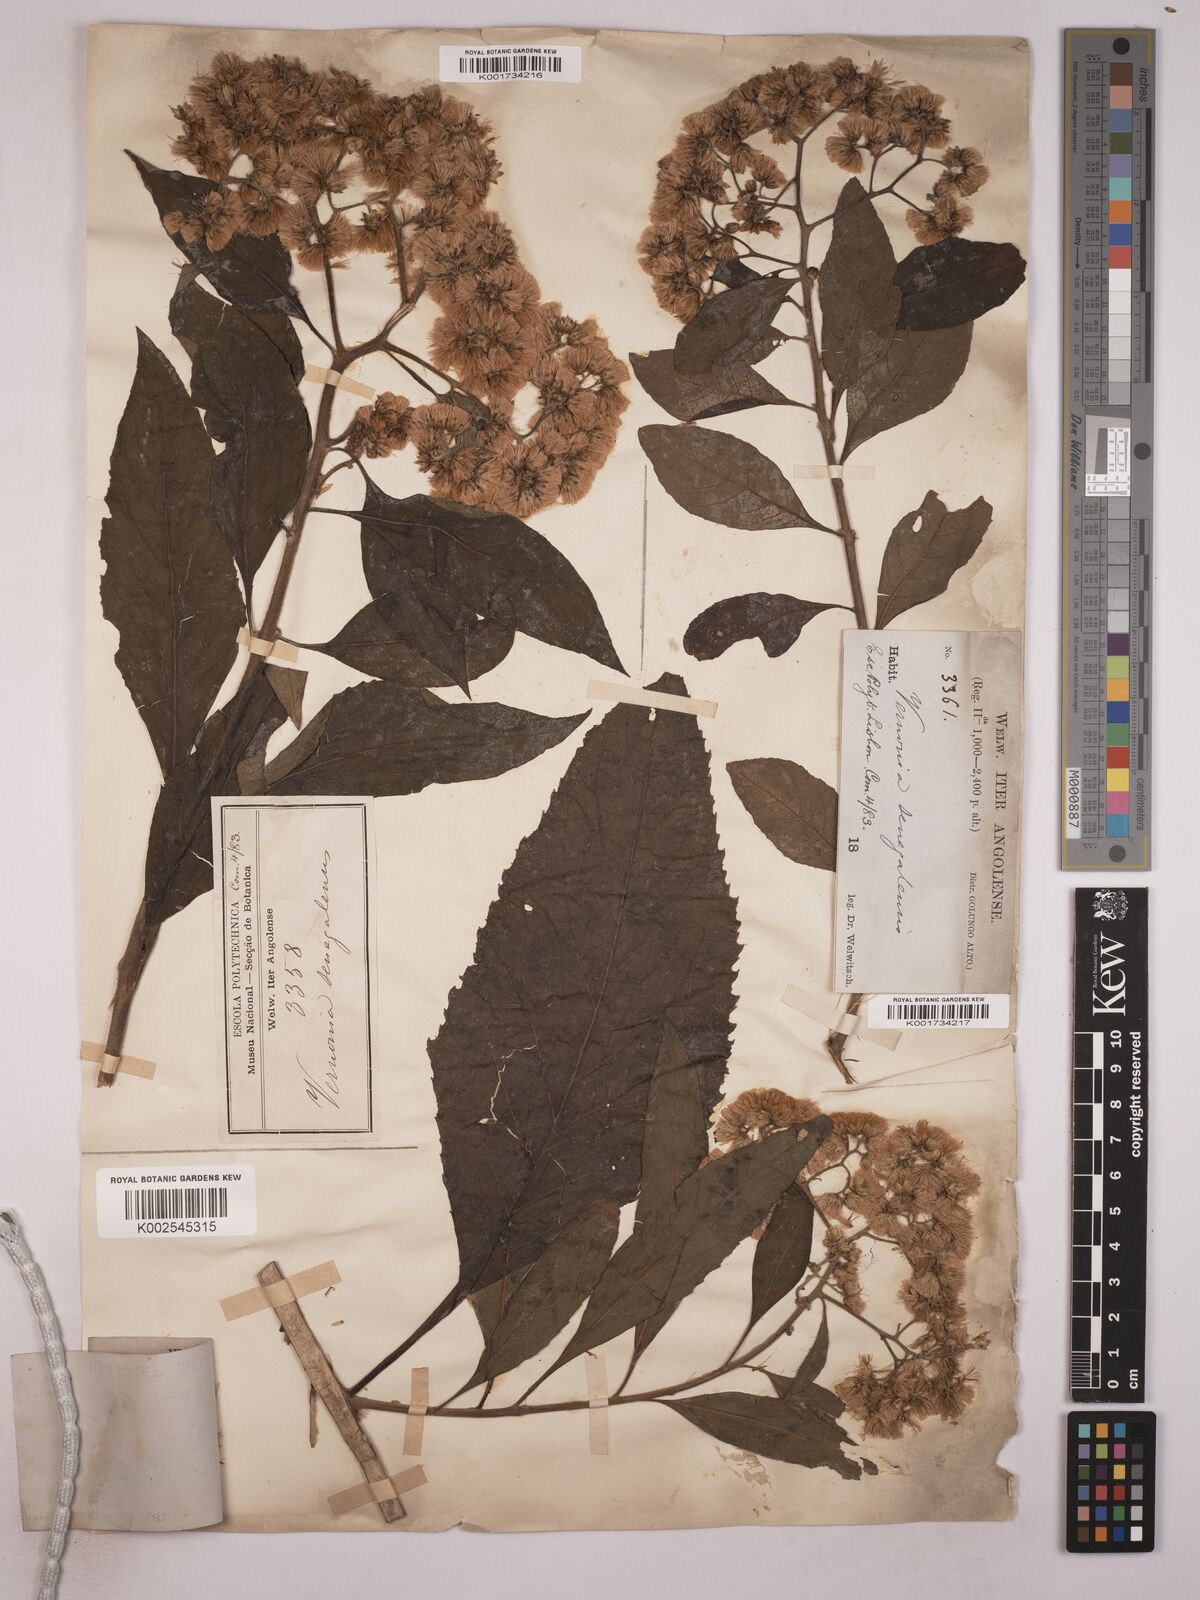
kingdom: Plantae
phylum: Tracheophyta
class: Magnoliopsida
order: Asterales
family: Asteraceae
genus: Gymnanthemum
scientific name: Gymnanthemum amygdalinum
